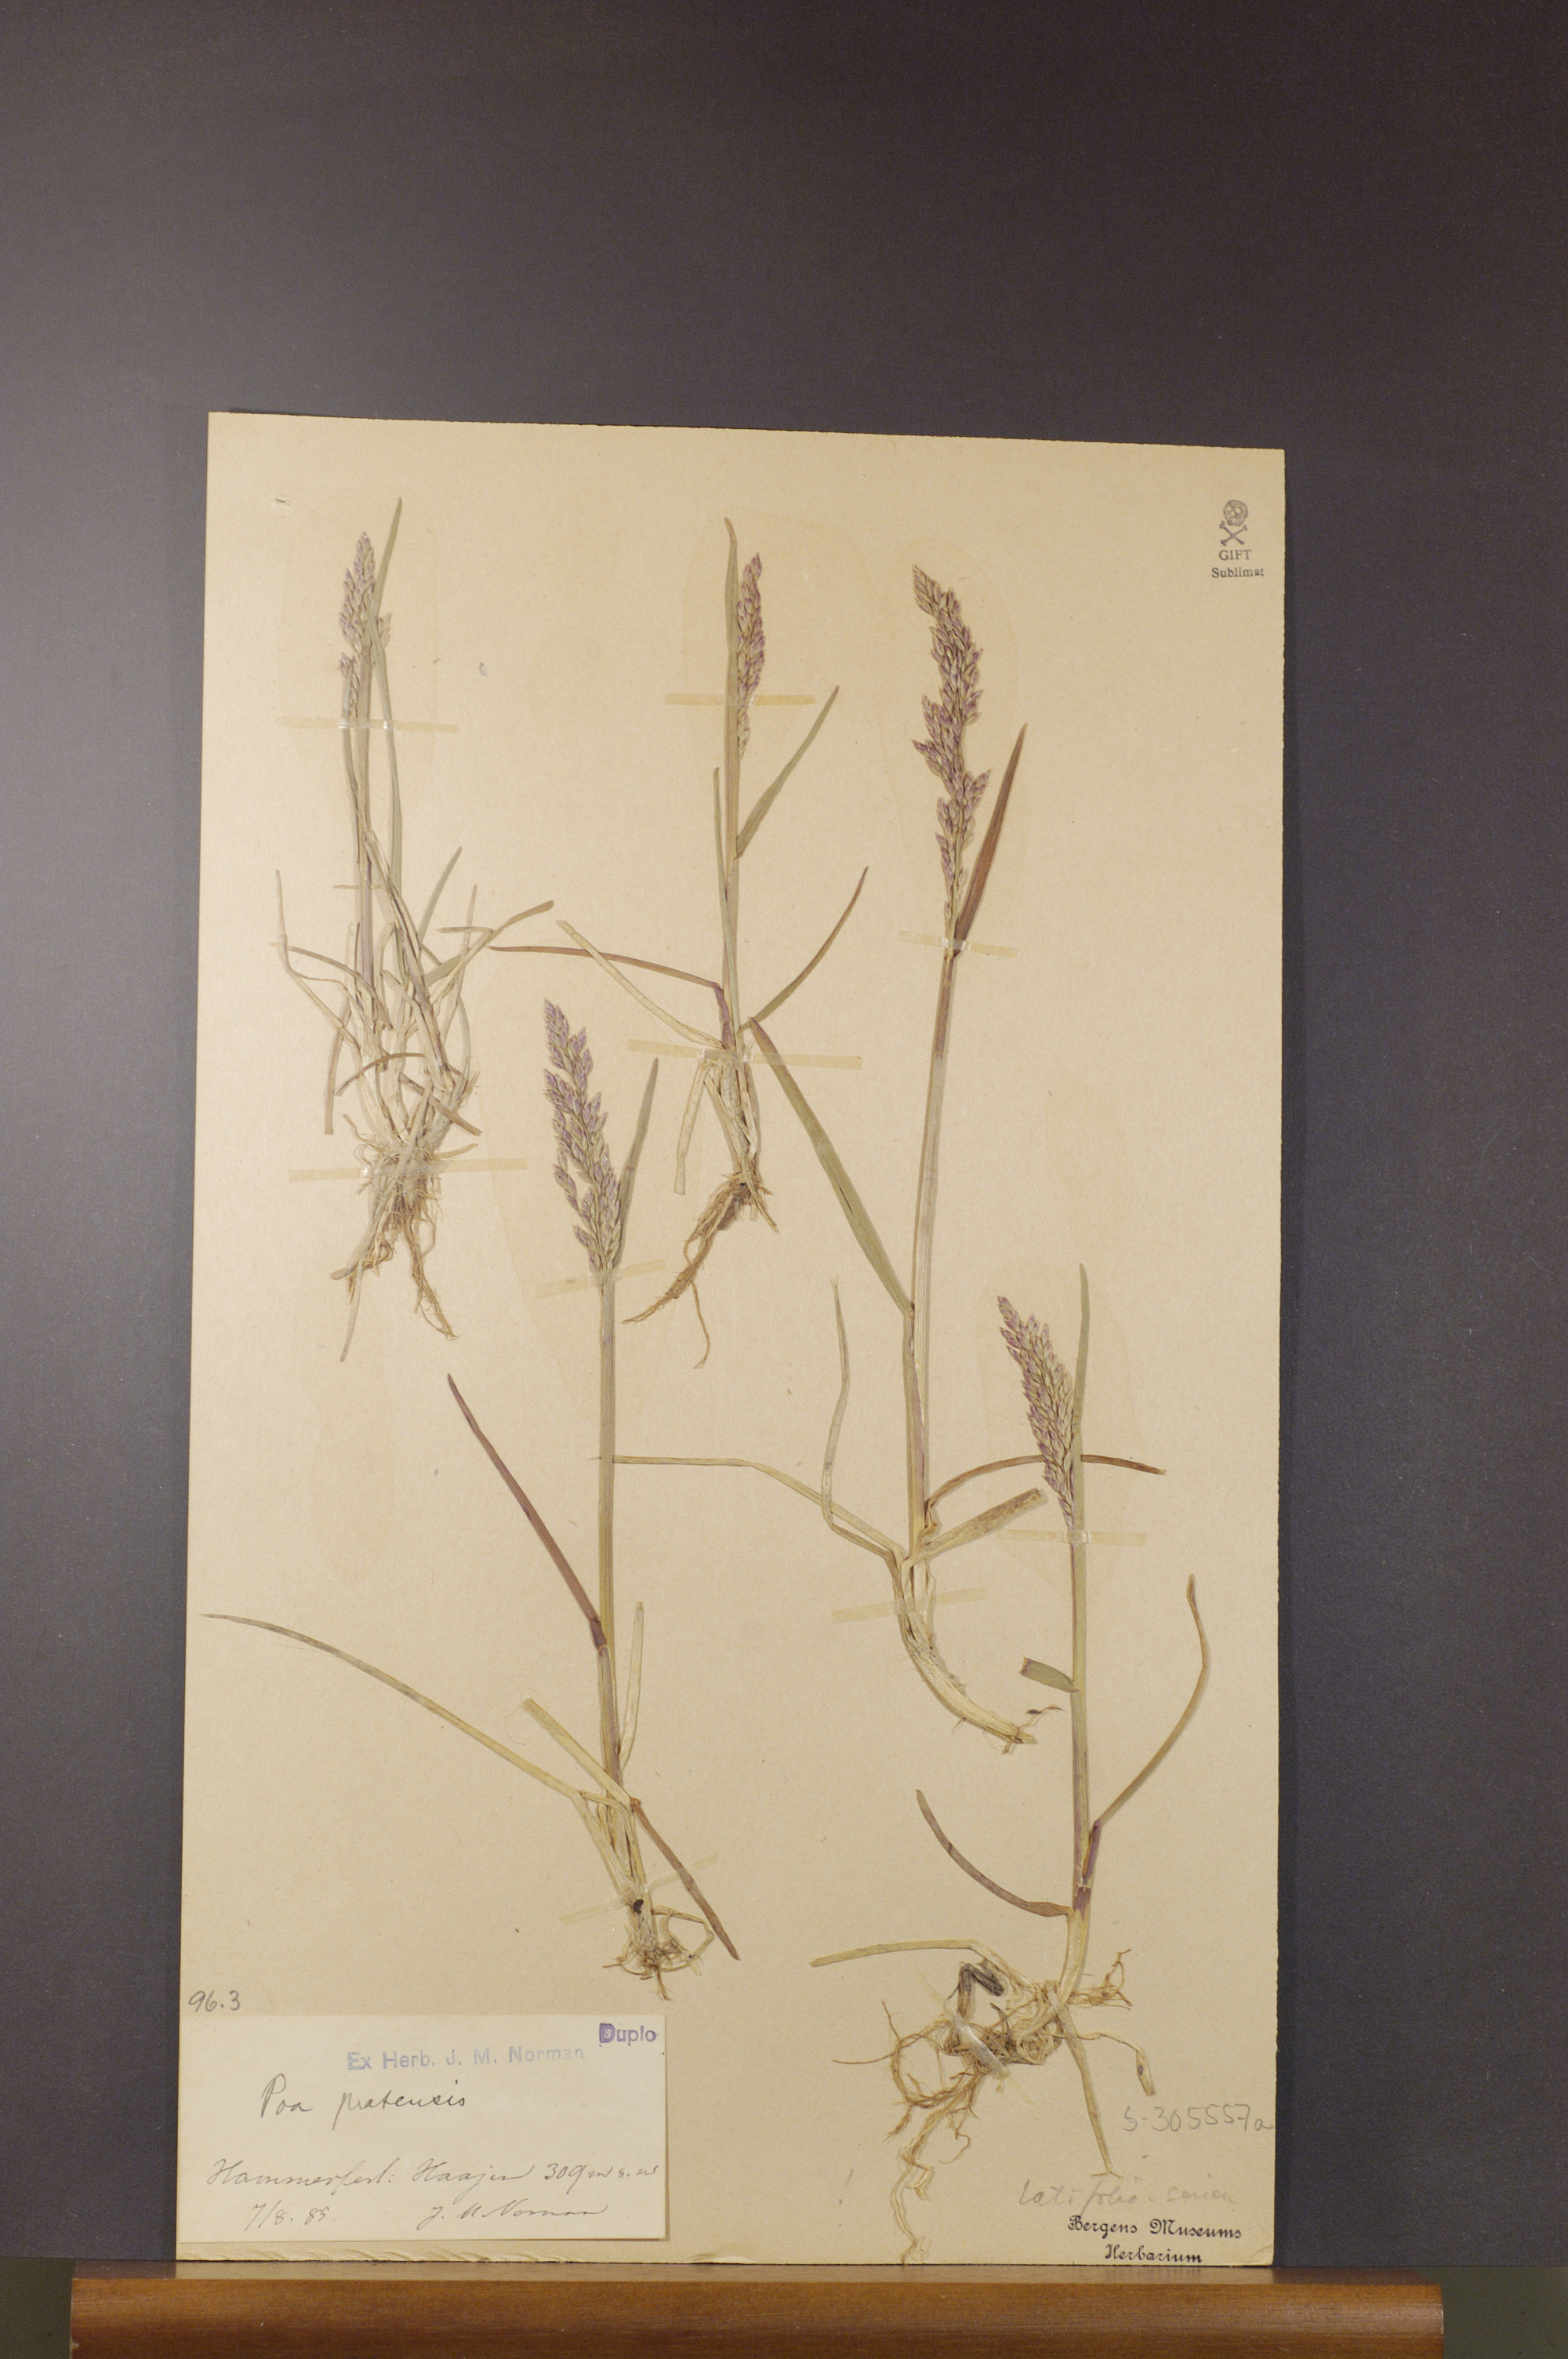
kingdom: Plantae
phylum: Tracheophyta
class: Liliopsida
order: Poales
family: Poaceae
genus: Poa
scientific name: Poa pratensis
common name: Kentucky bluegrass
